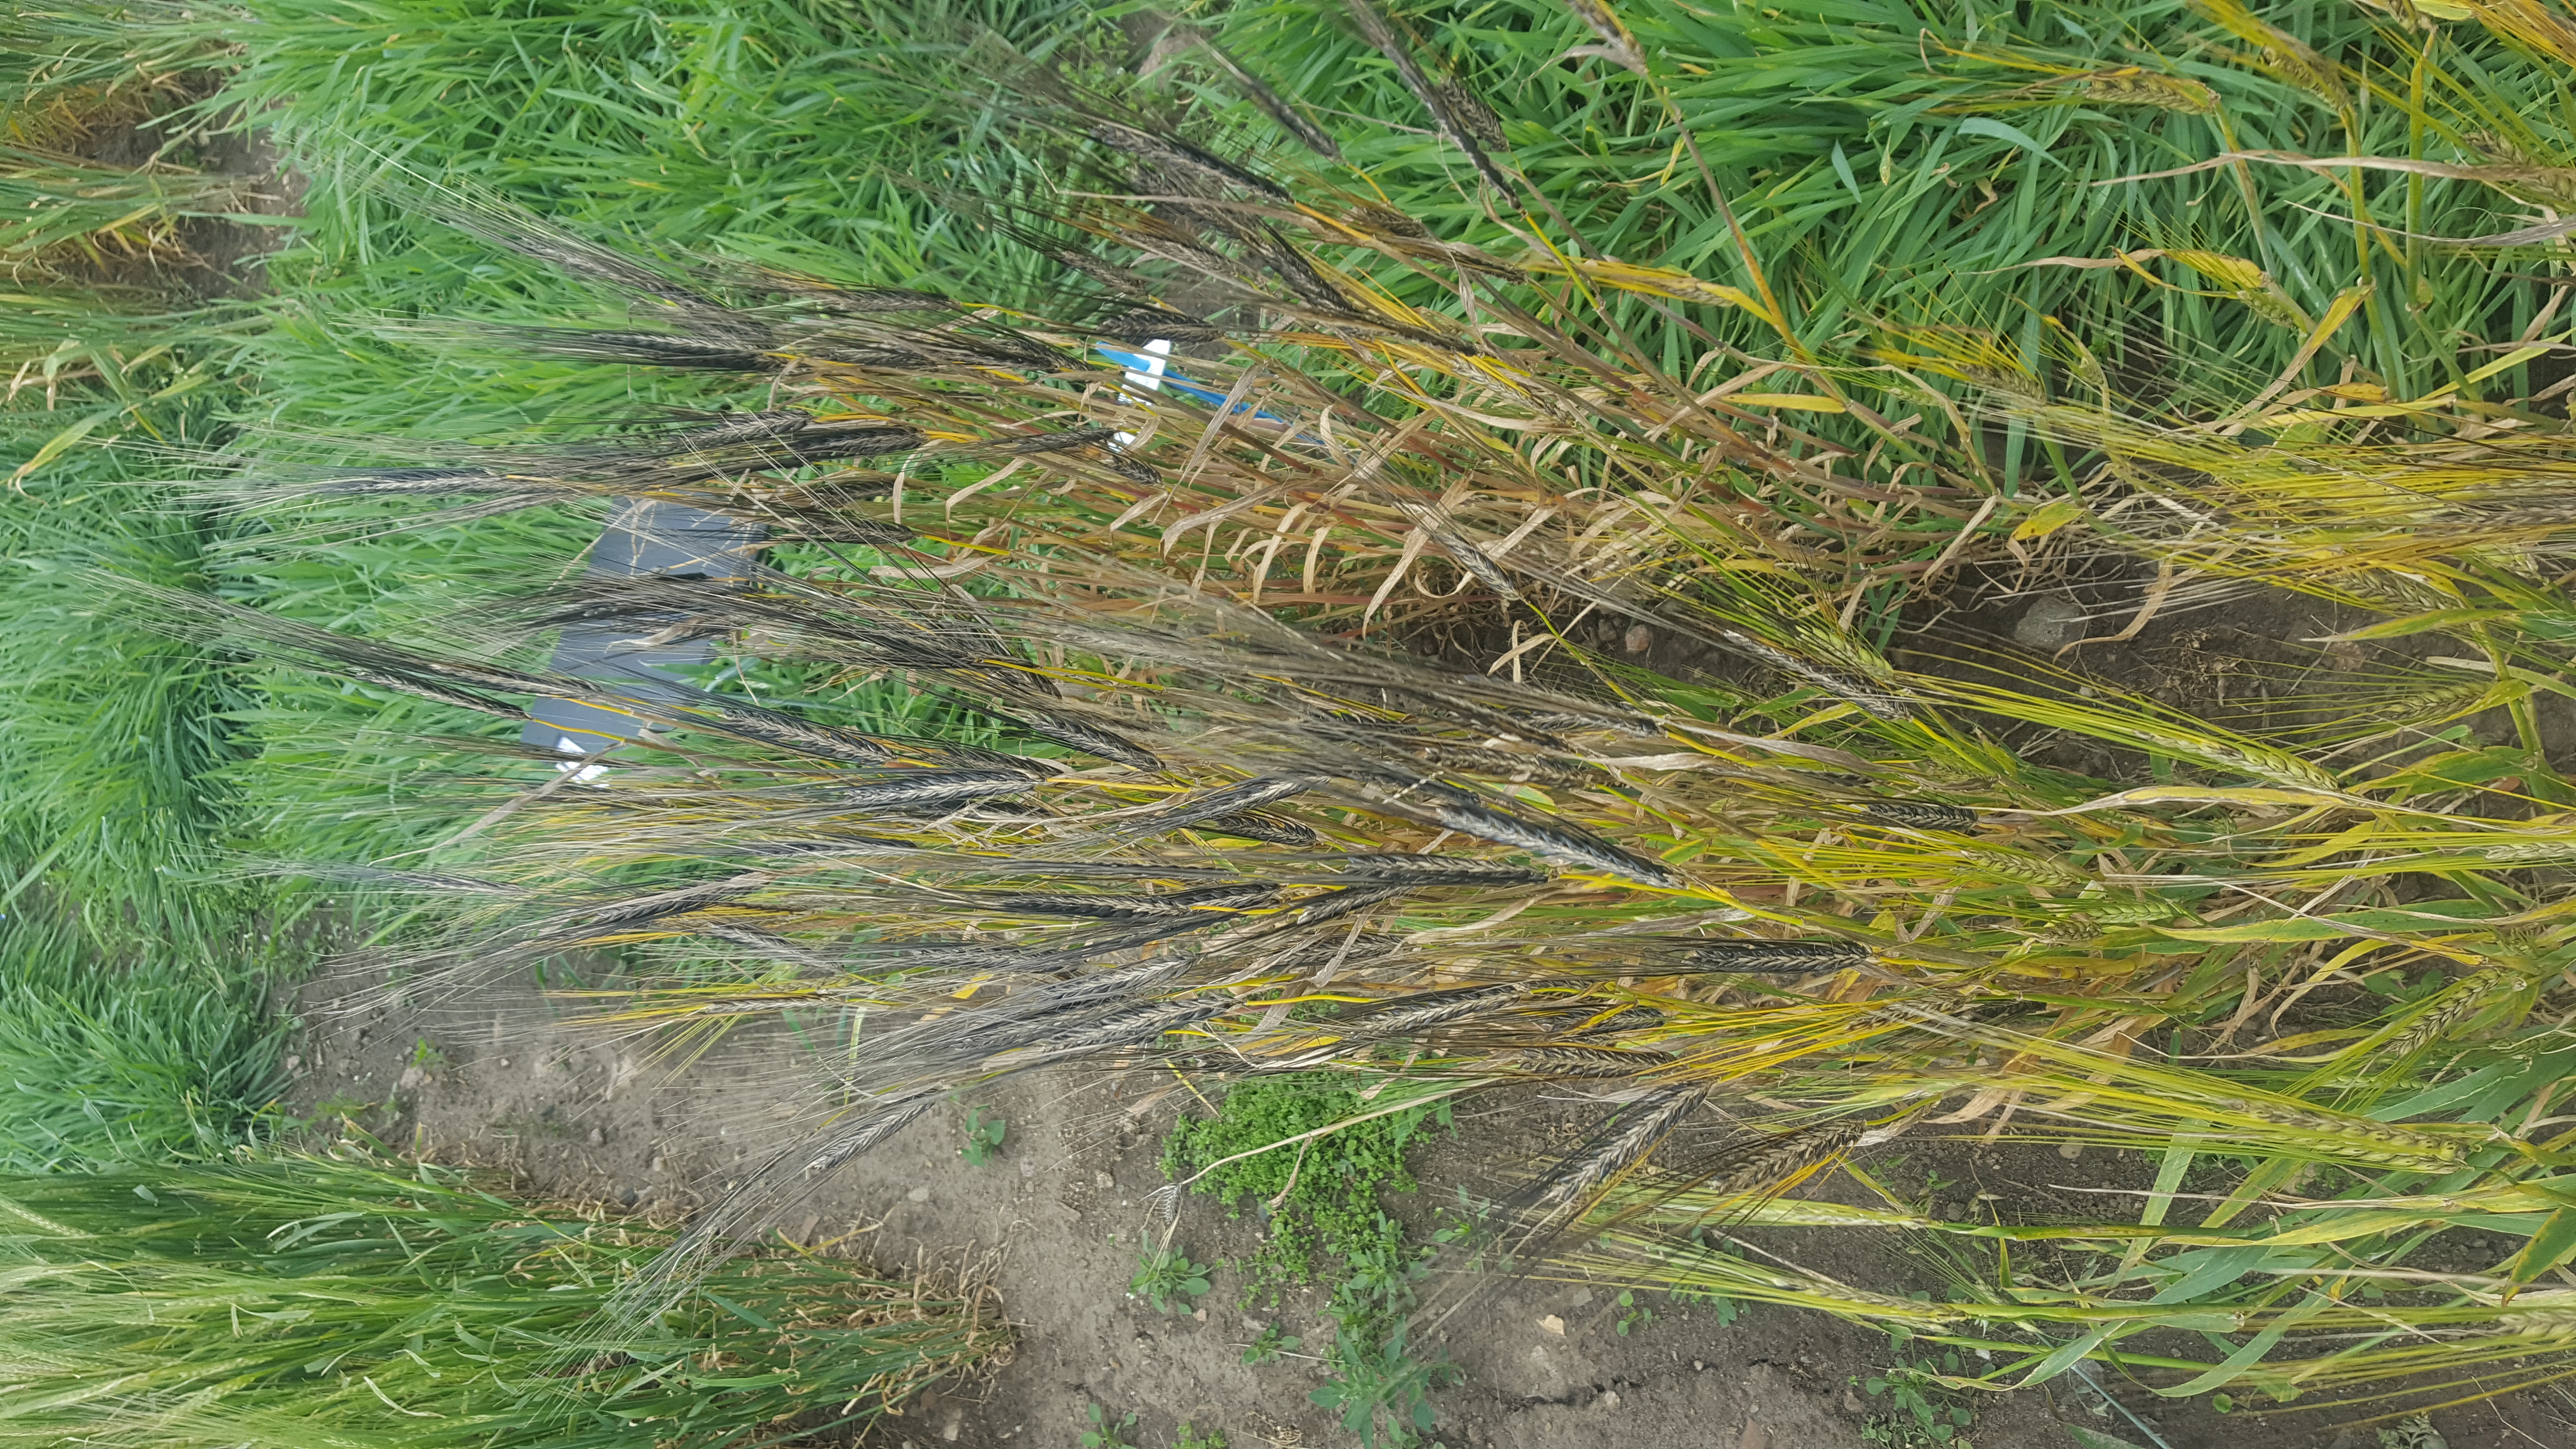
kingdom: Plantae
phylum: Tracheophyta
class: Liliopsida
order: Poales
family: Poaceae
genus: Hordeum
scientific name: Hordeum vulgare
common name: Common barley
